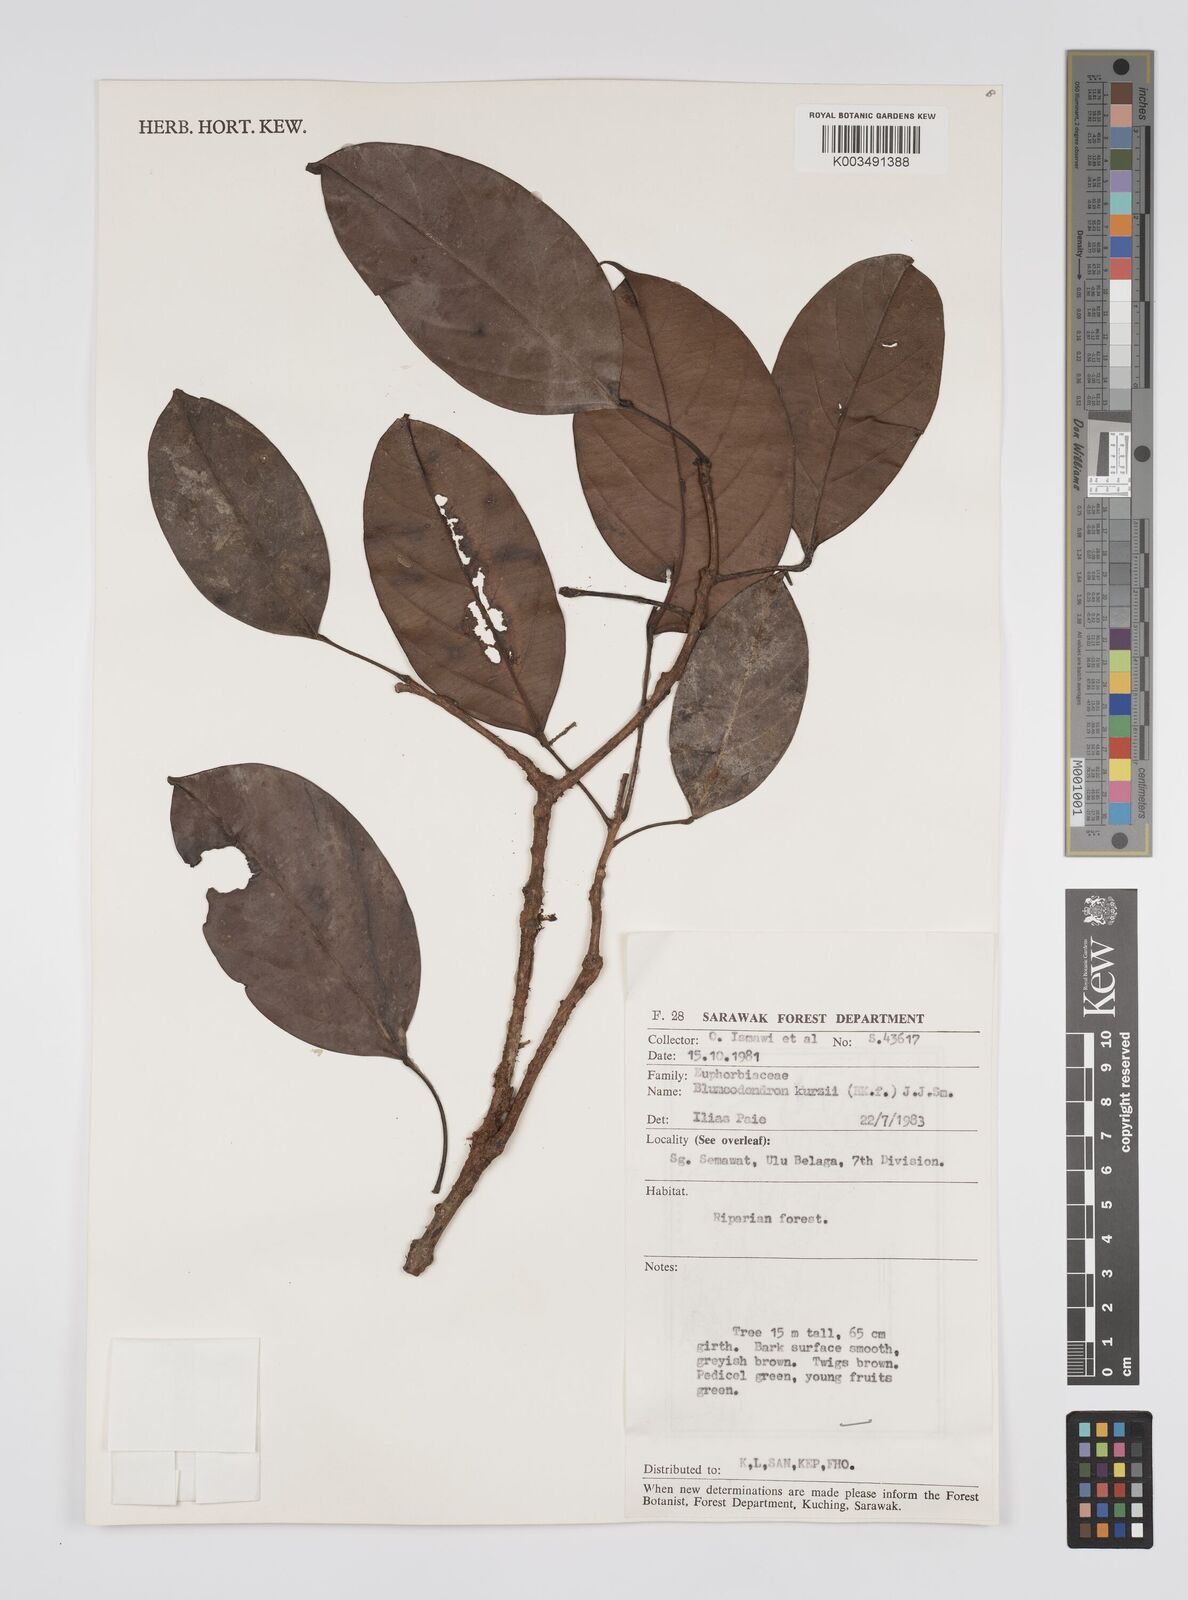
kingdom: Plantae
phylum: Tracheophyta
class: Magnoliopsida
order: Malpighiales
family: Euphorbiaceae
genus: Blumeodendron
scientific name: Blumeodendron kurzii
